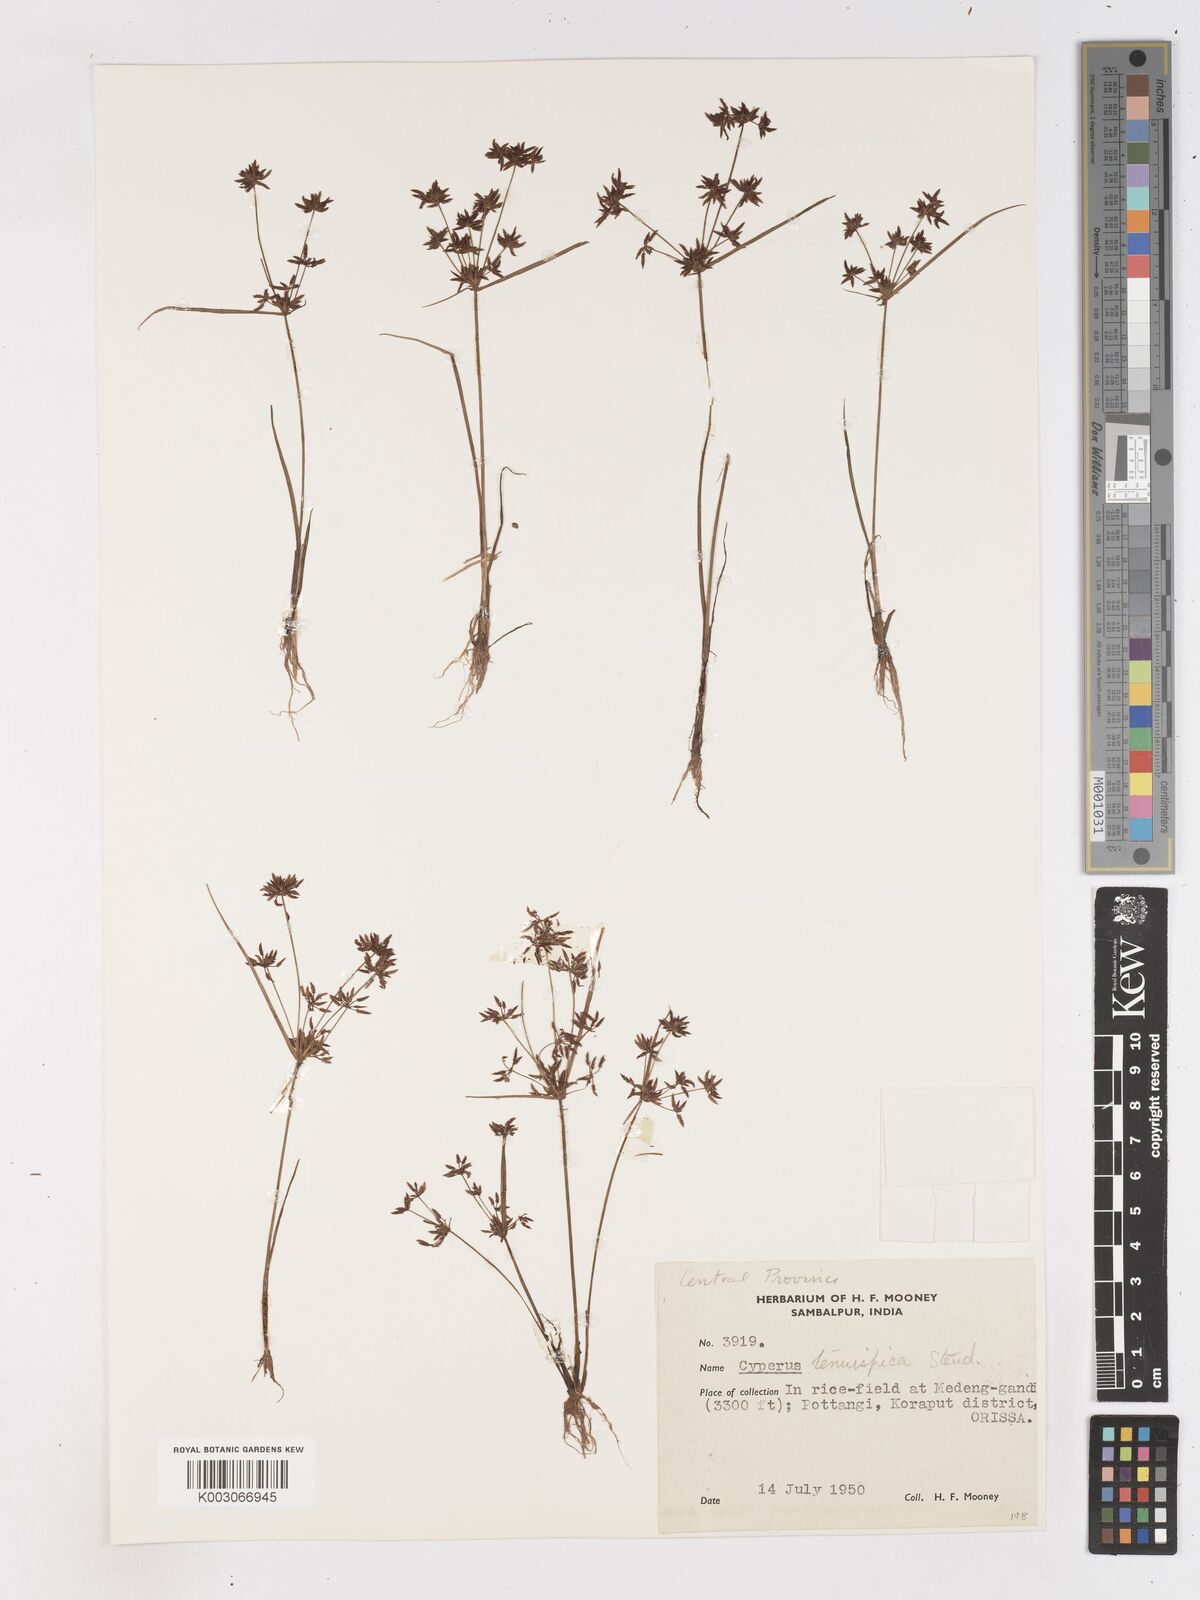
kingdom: Plantae
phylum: Tracheophyta
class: Liliopsida
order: Poales
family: Cyperaceae
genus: Cyperus
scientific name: Cyperus tenuispica
